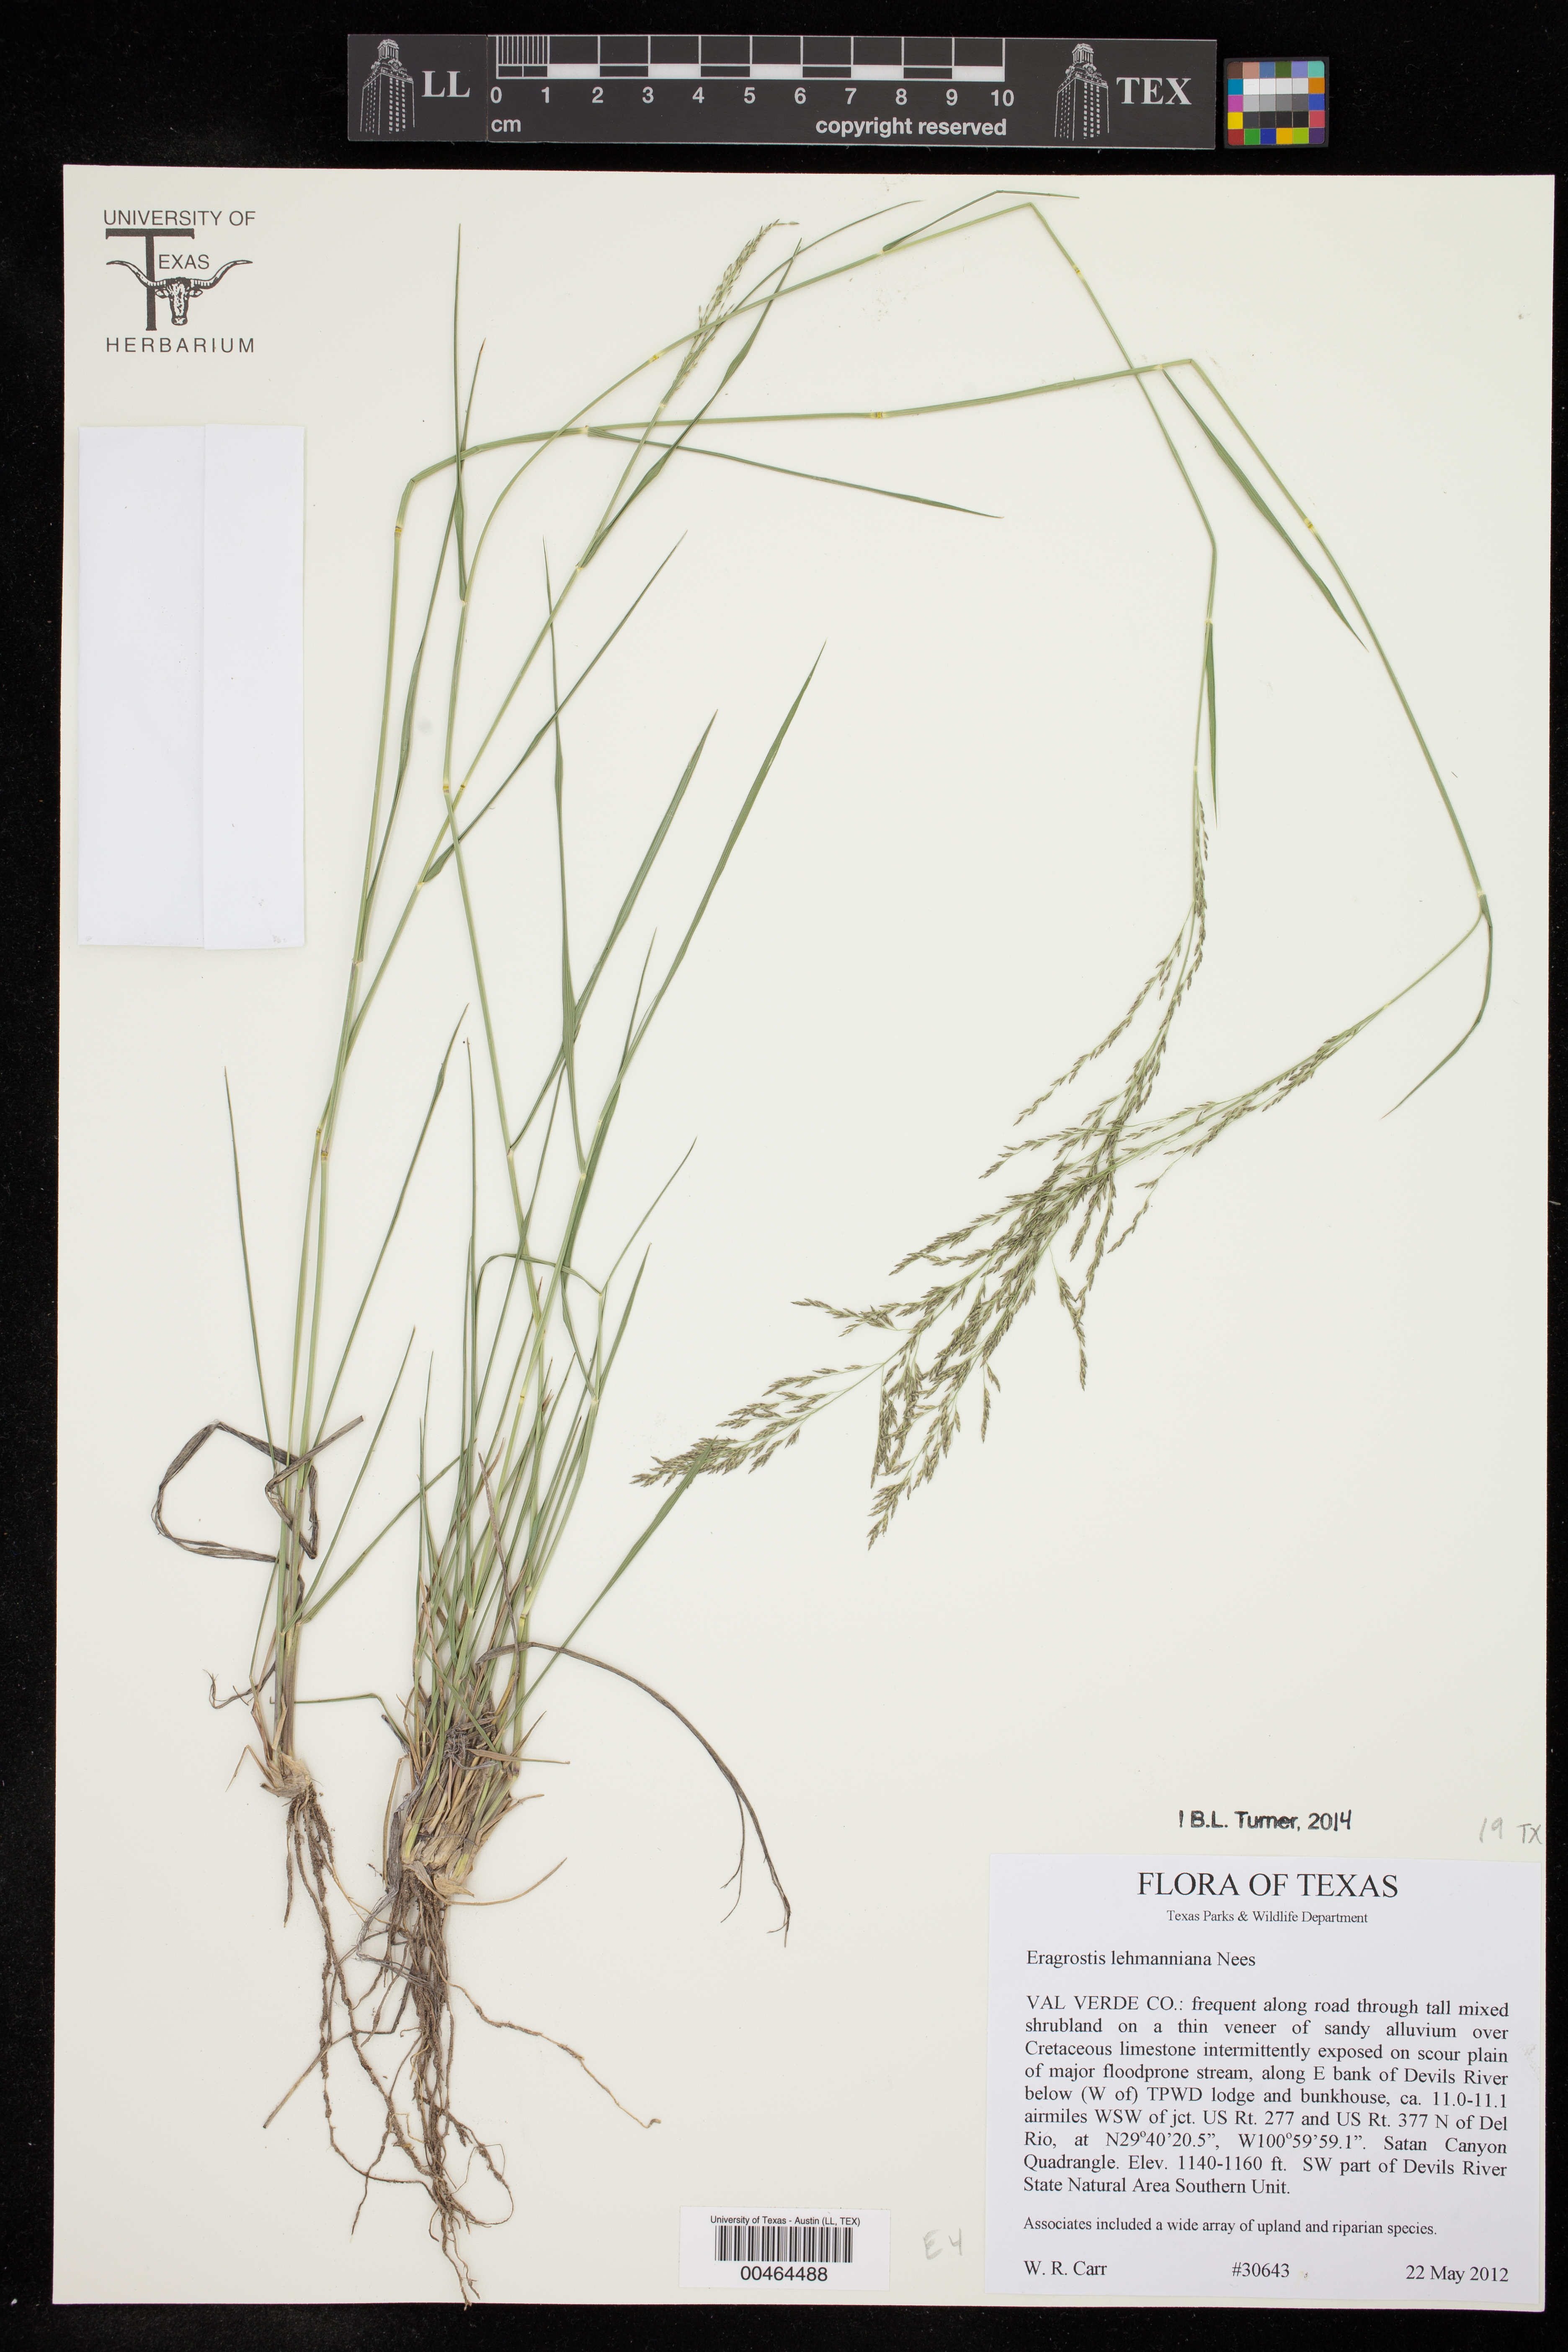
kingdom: Plantae
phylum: Tracheophyta
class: Liliopsida
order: Poales
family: Poaceae
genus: Eragrostis
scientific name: Eragrostis lehmanniana
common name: Lehmann lovegrass
